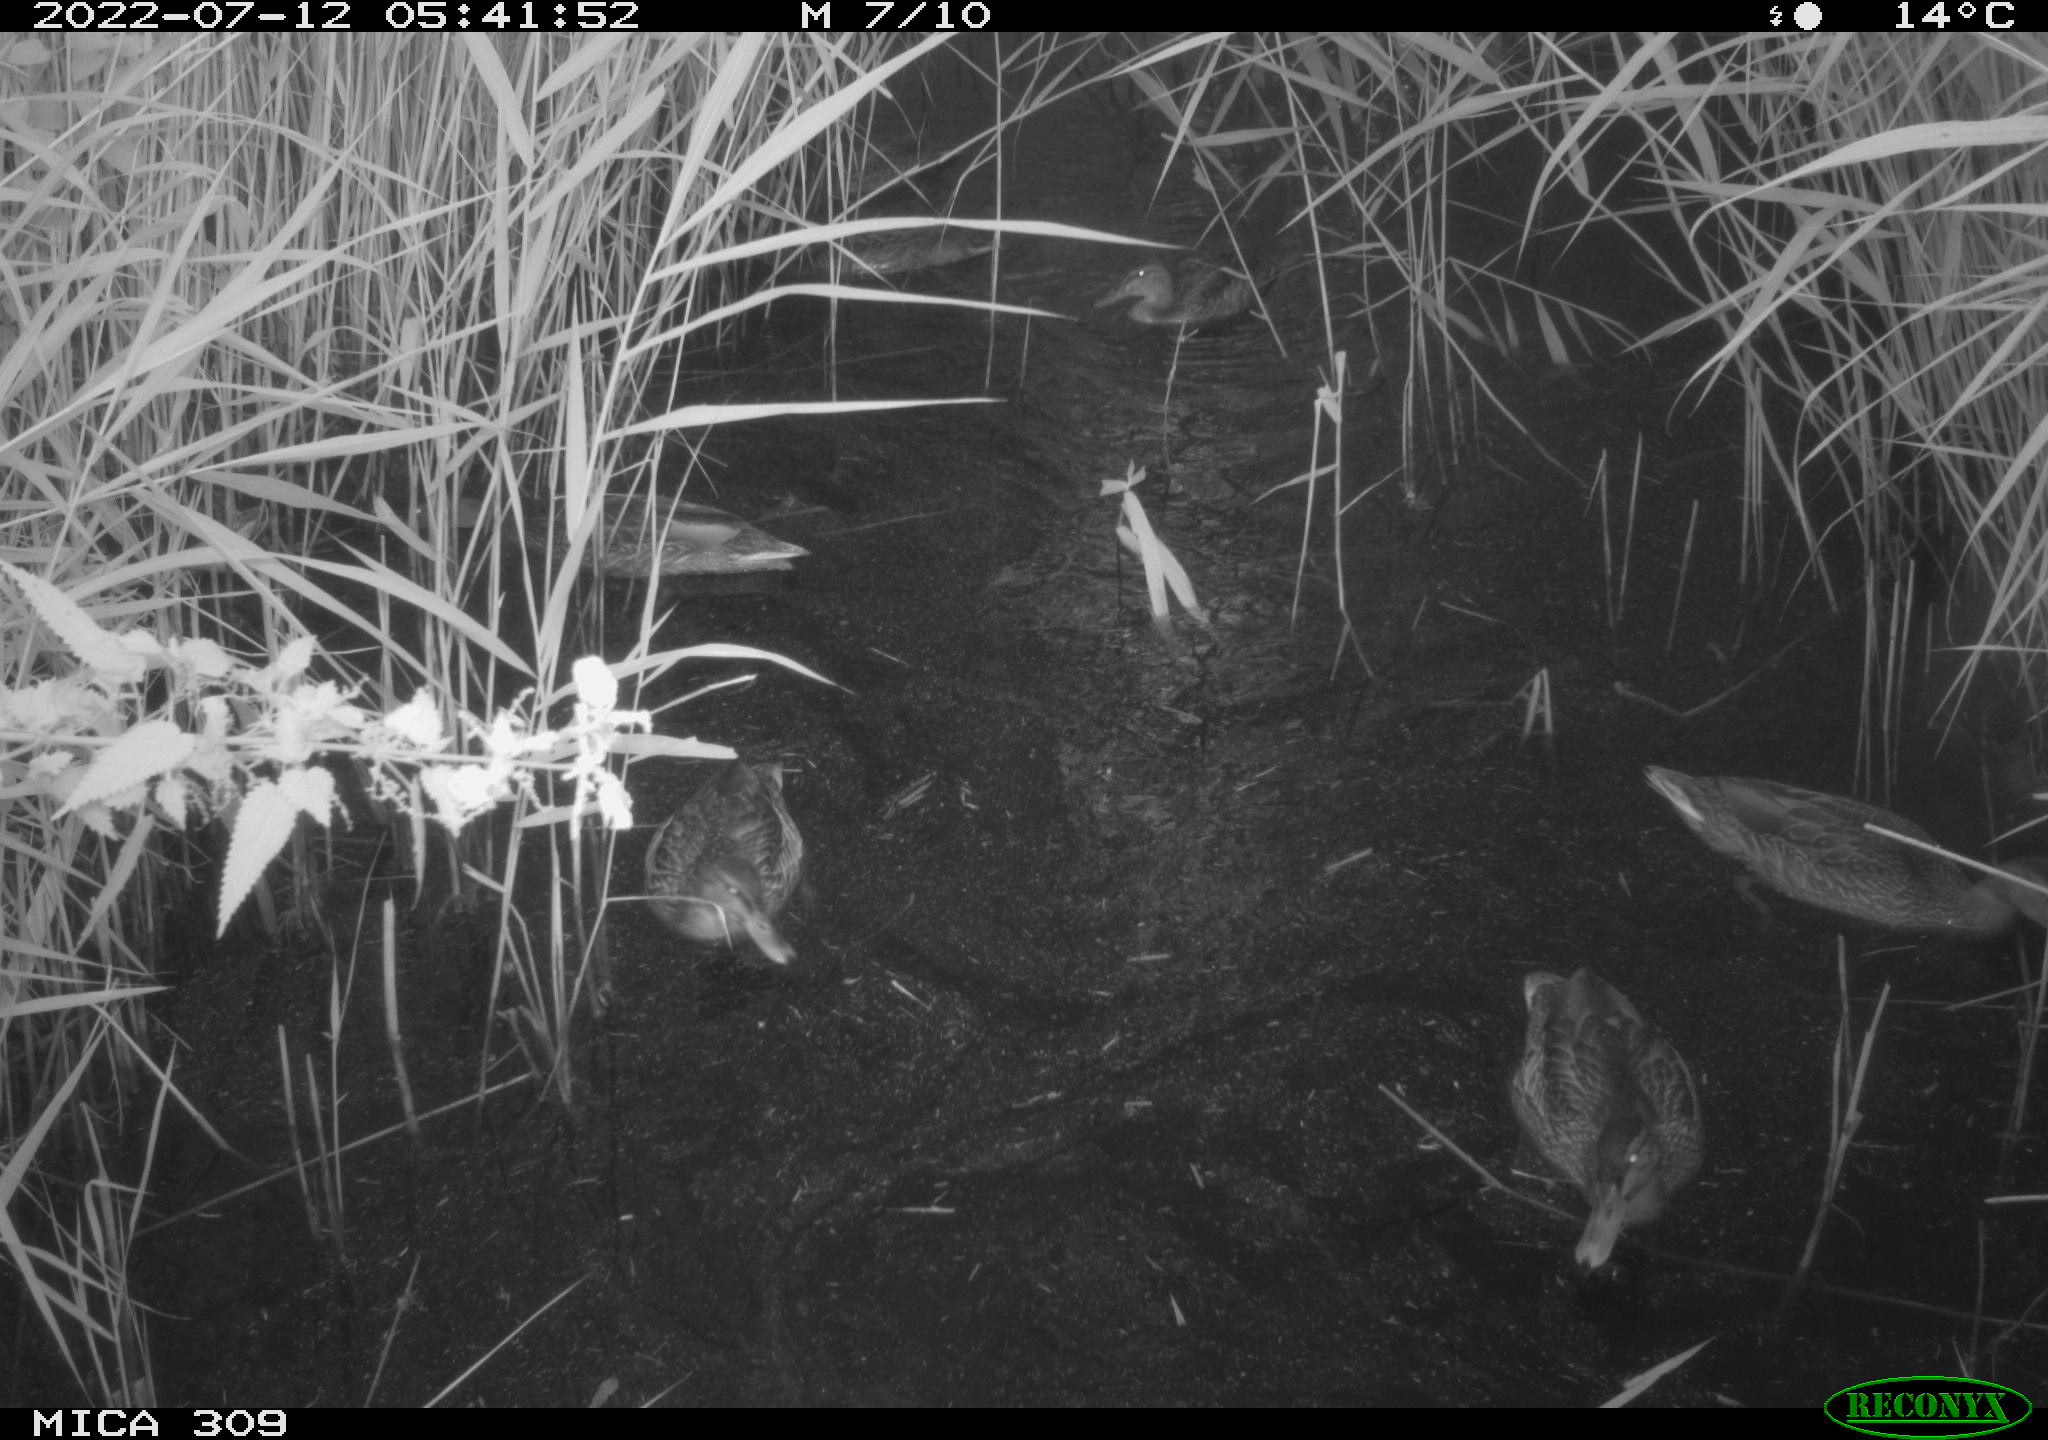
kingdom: Animalia
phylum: Chordata
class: Aves
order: Anseriformes
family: Anatidae
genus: Anas
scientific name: Anas platyrhynchos
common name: Mallard
